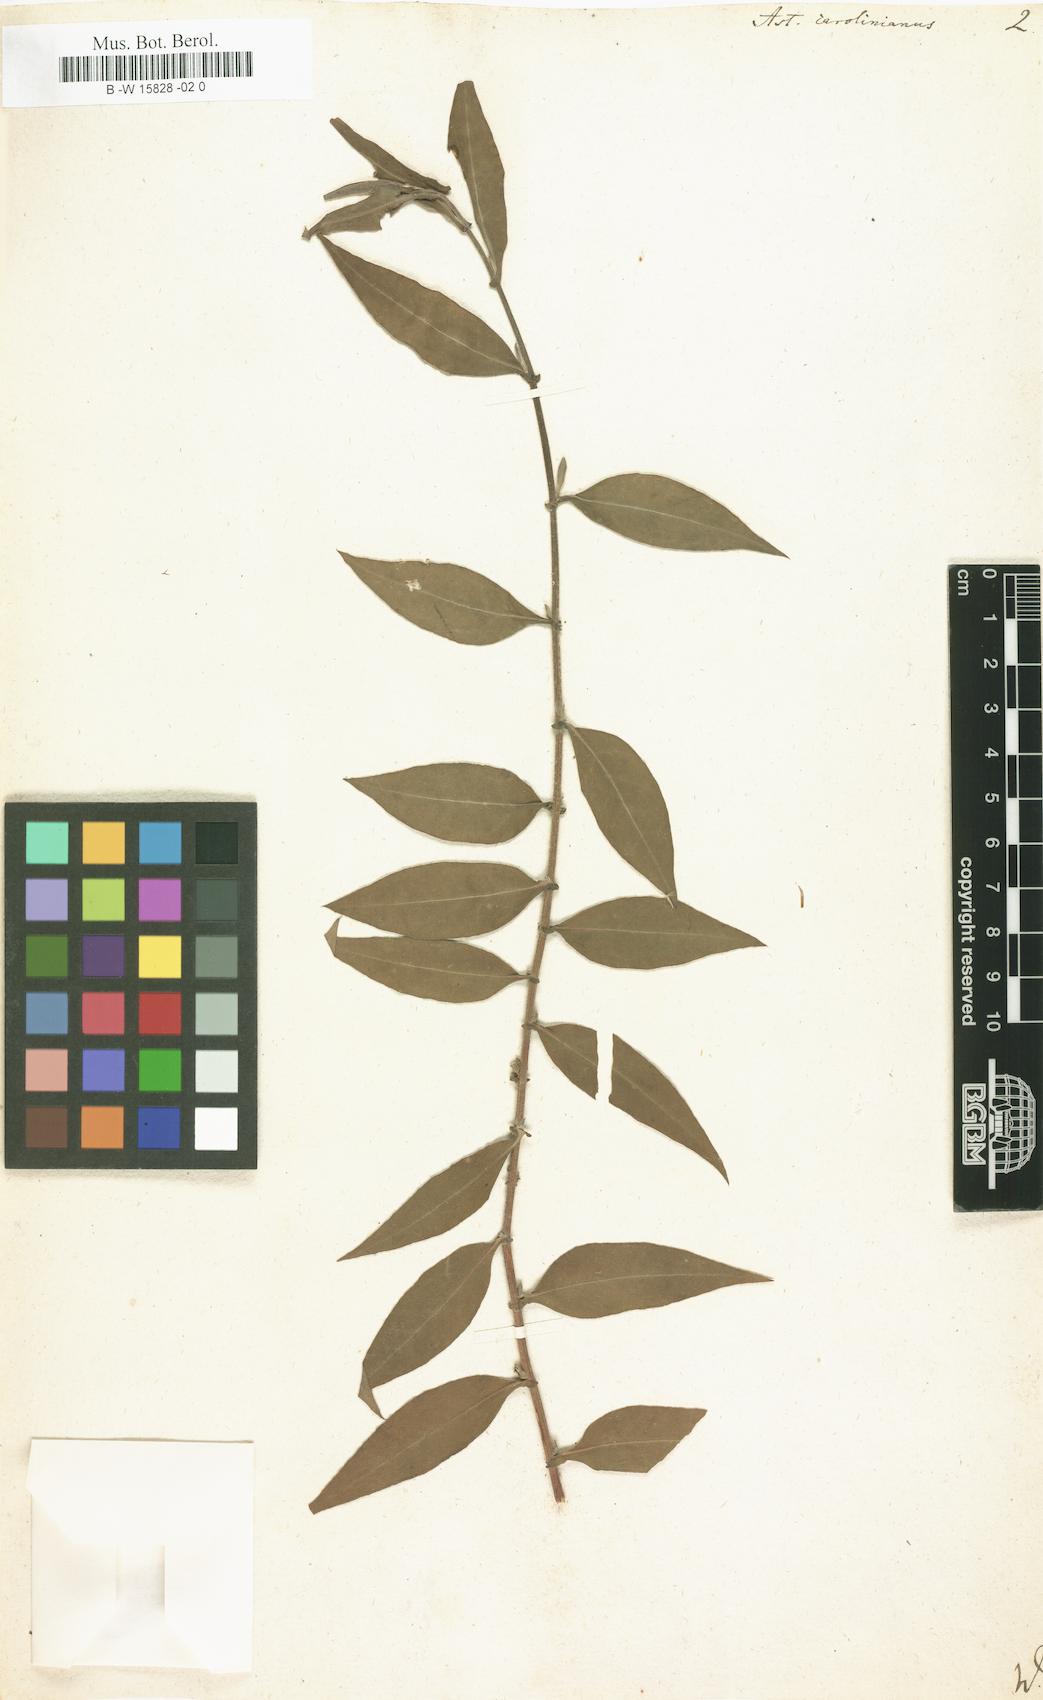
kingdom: Plantae
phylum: Tracheophyta
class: Magnoliopsida
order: Asterales
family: Asteraceae
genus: Ampelaster
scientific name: Ampelaster carolinianus
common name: Climbing aster
